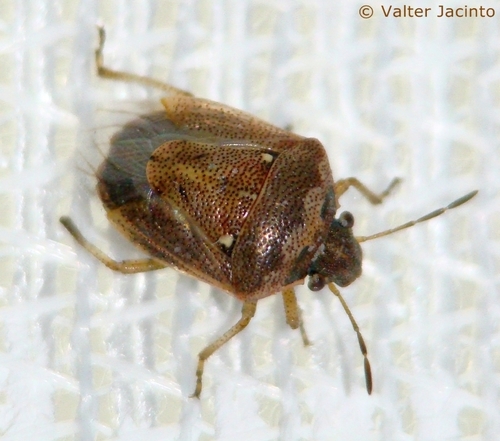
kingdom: Animalia
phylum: Arthropoda
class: Insecta
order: Hemiptera
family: Pentatomidae
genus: Eysarcoris
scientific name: Eysarcoris ventralis
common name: White-spotted stink bug
